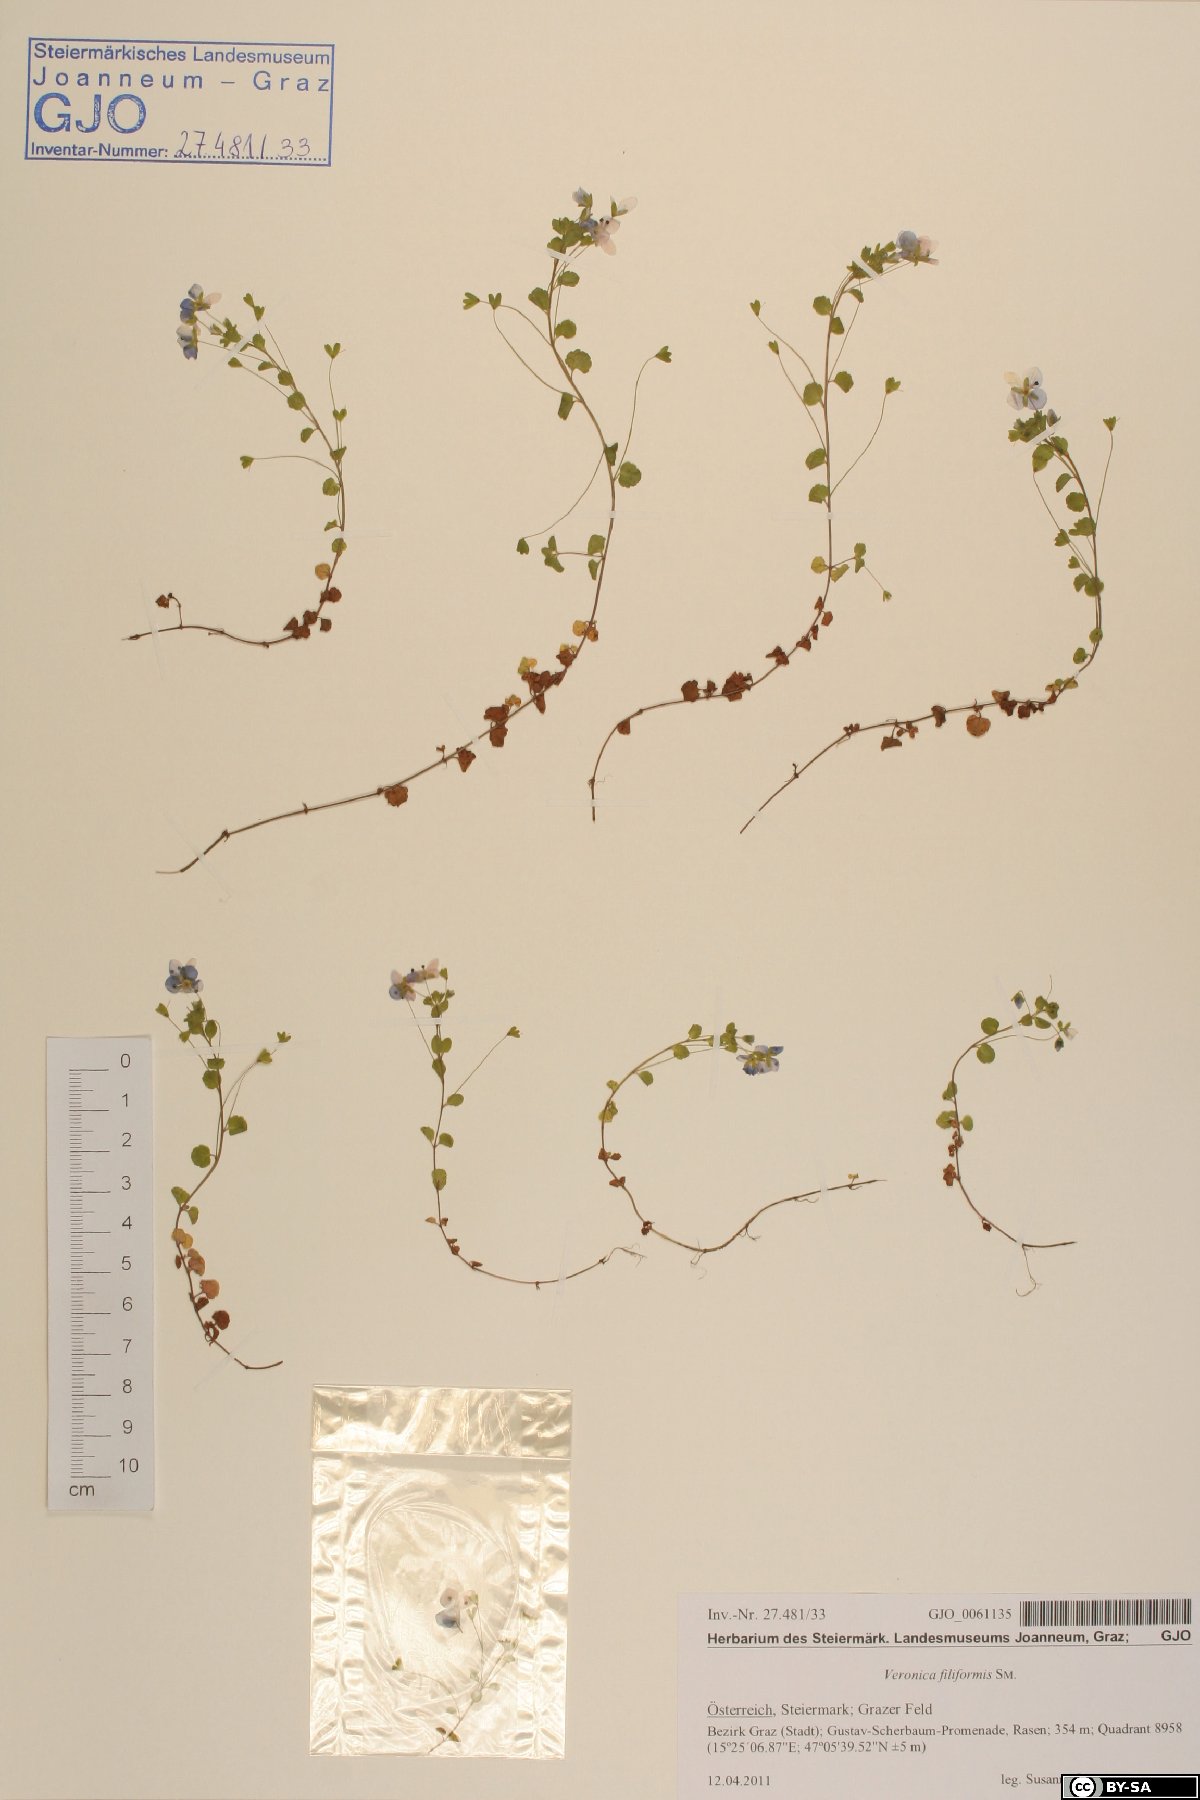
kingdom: Plantae
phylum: Tracheophyta
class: Magnoliopsida
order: Lamiales
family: Plantaginaceae
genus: Veronica
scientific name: Veronica filiformis
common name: Slender speedwell
